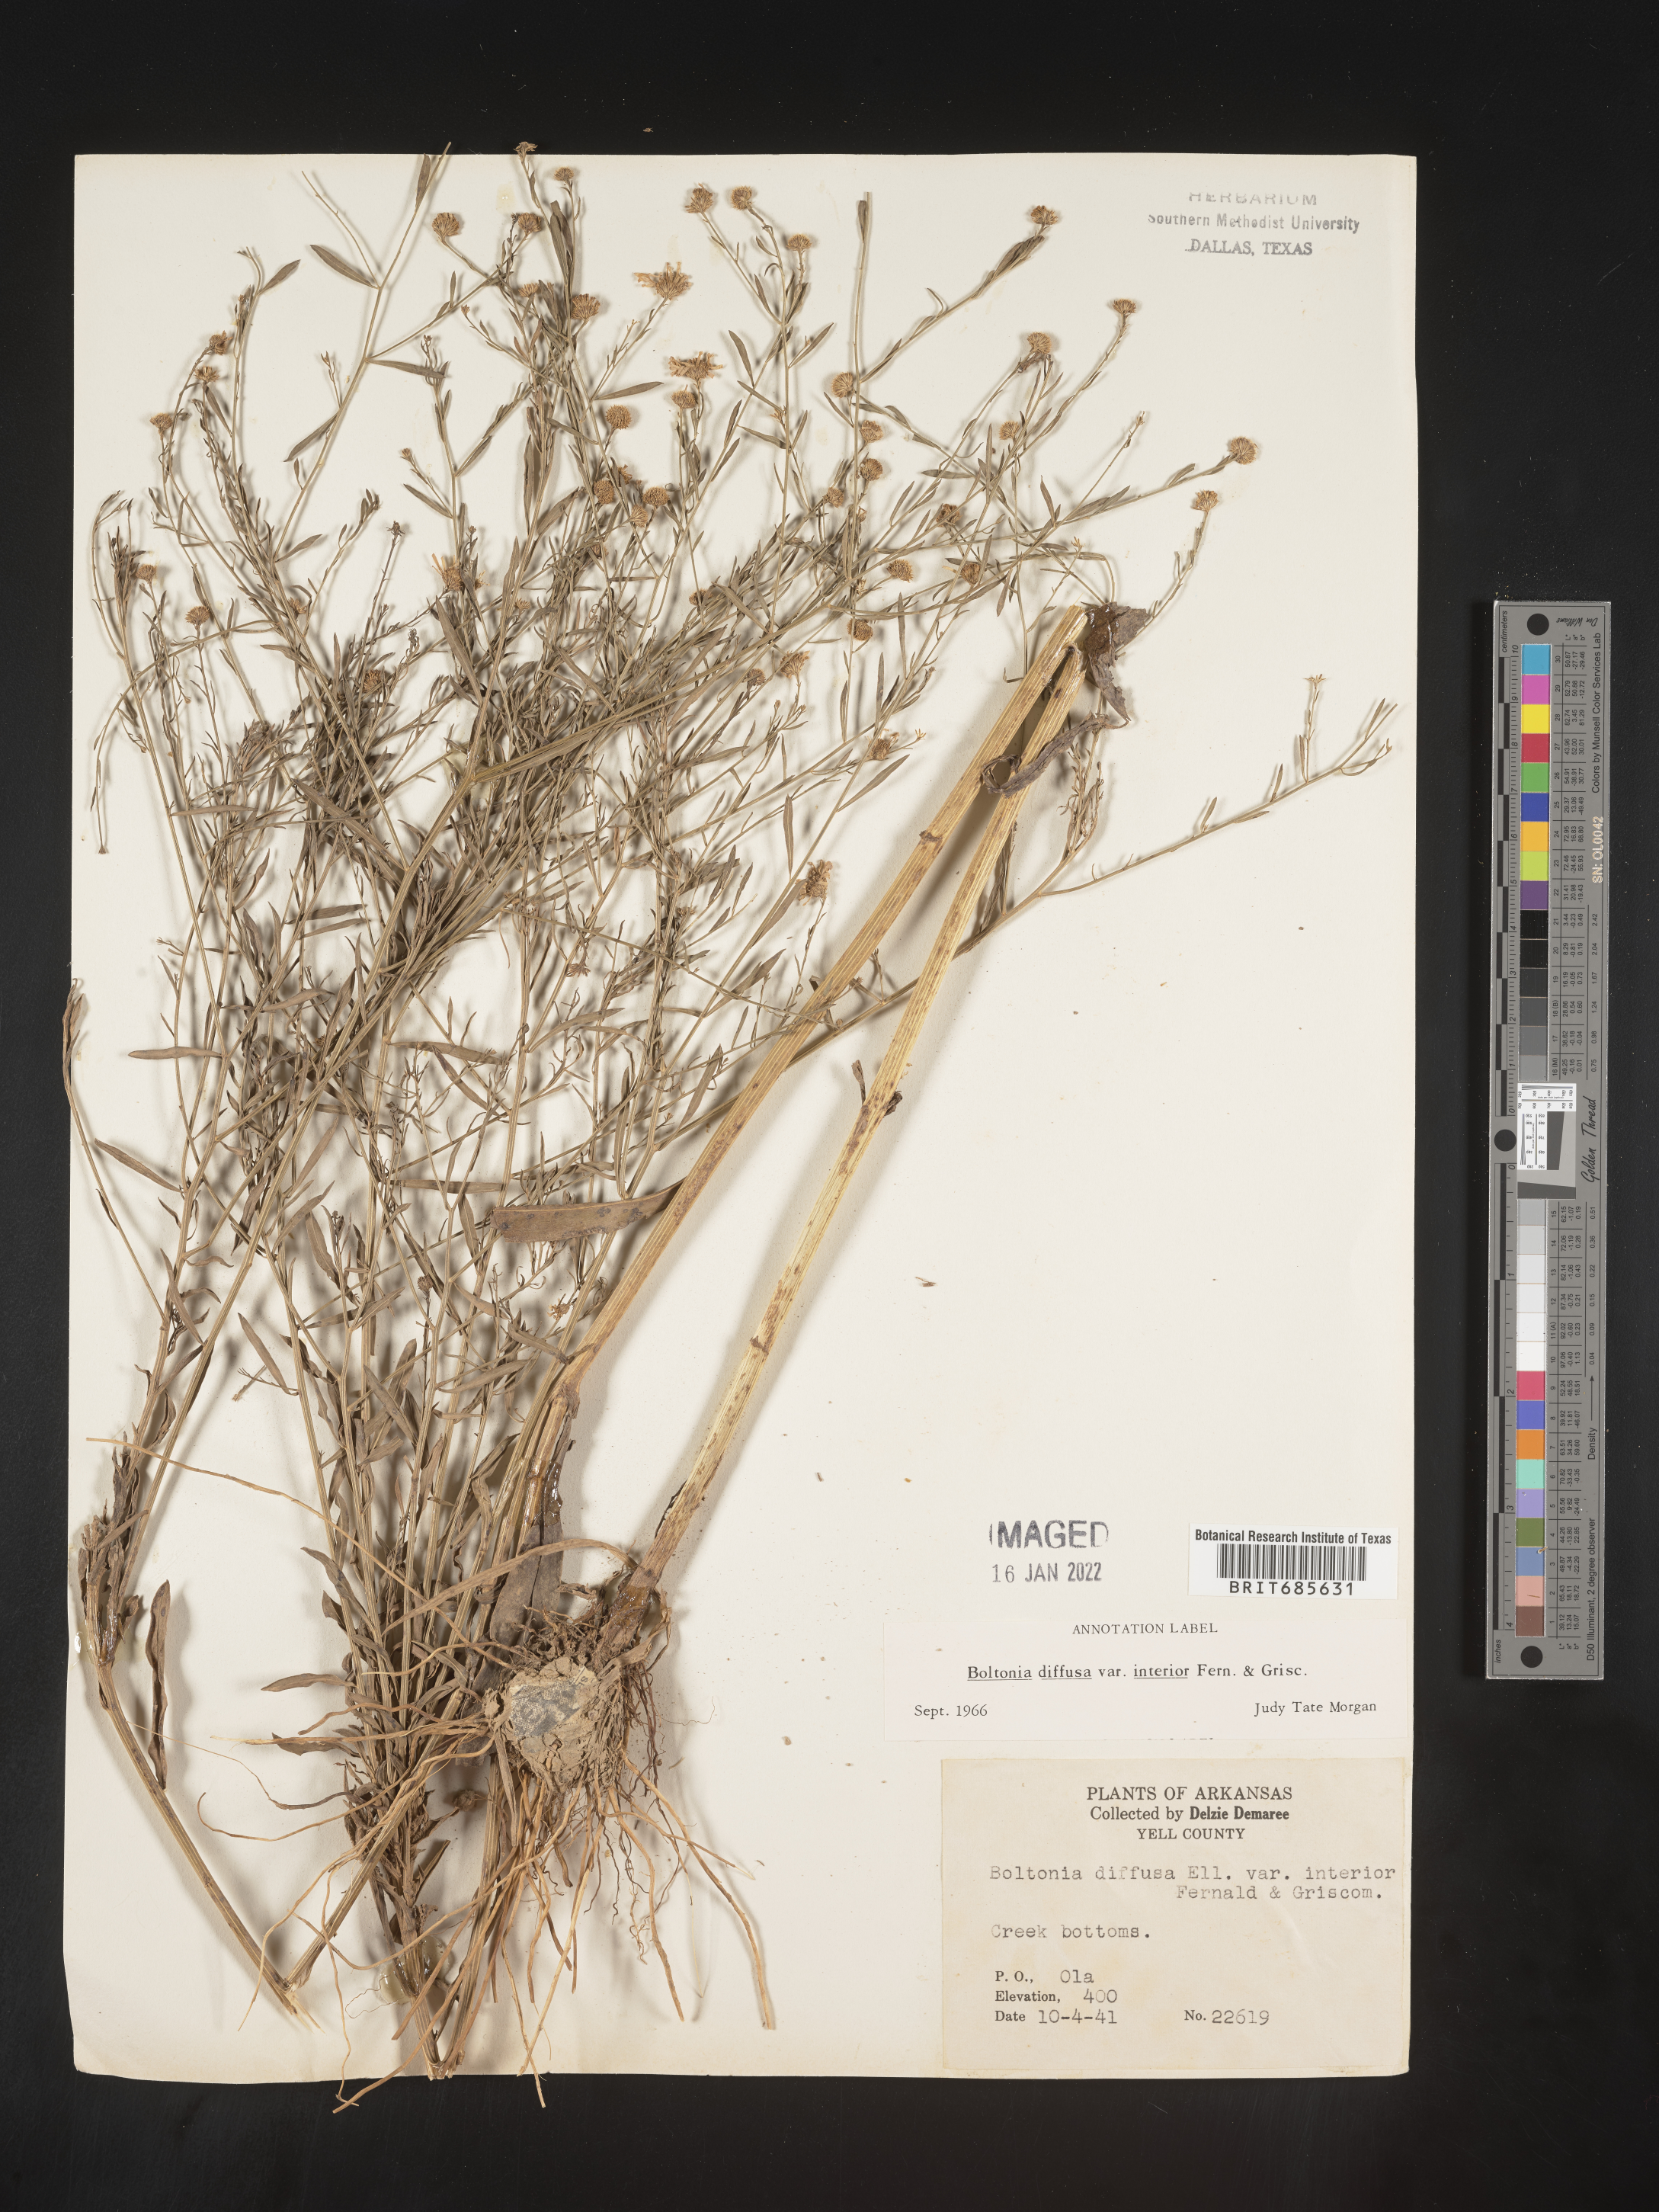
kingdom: Plantae
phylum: Tracheophyta
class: Magnoliopsida
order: Asterales
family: Asteraceae
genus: Boltonia
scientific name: Boltonia diffusa
